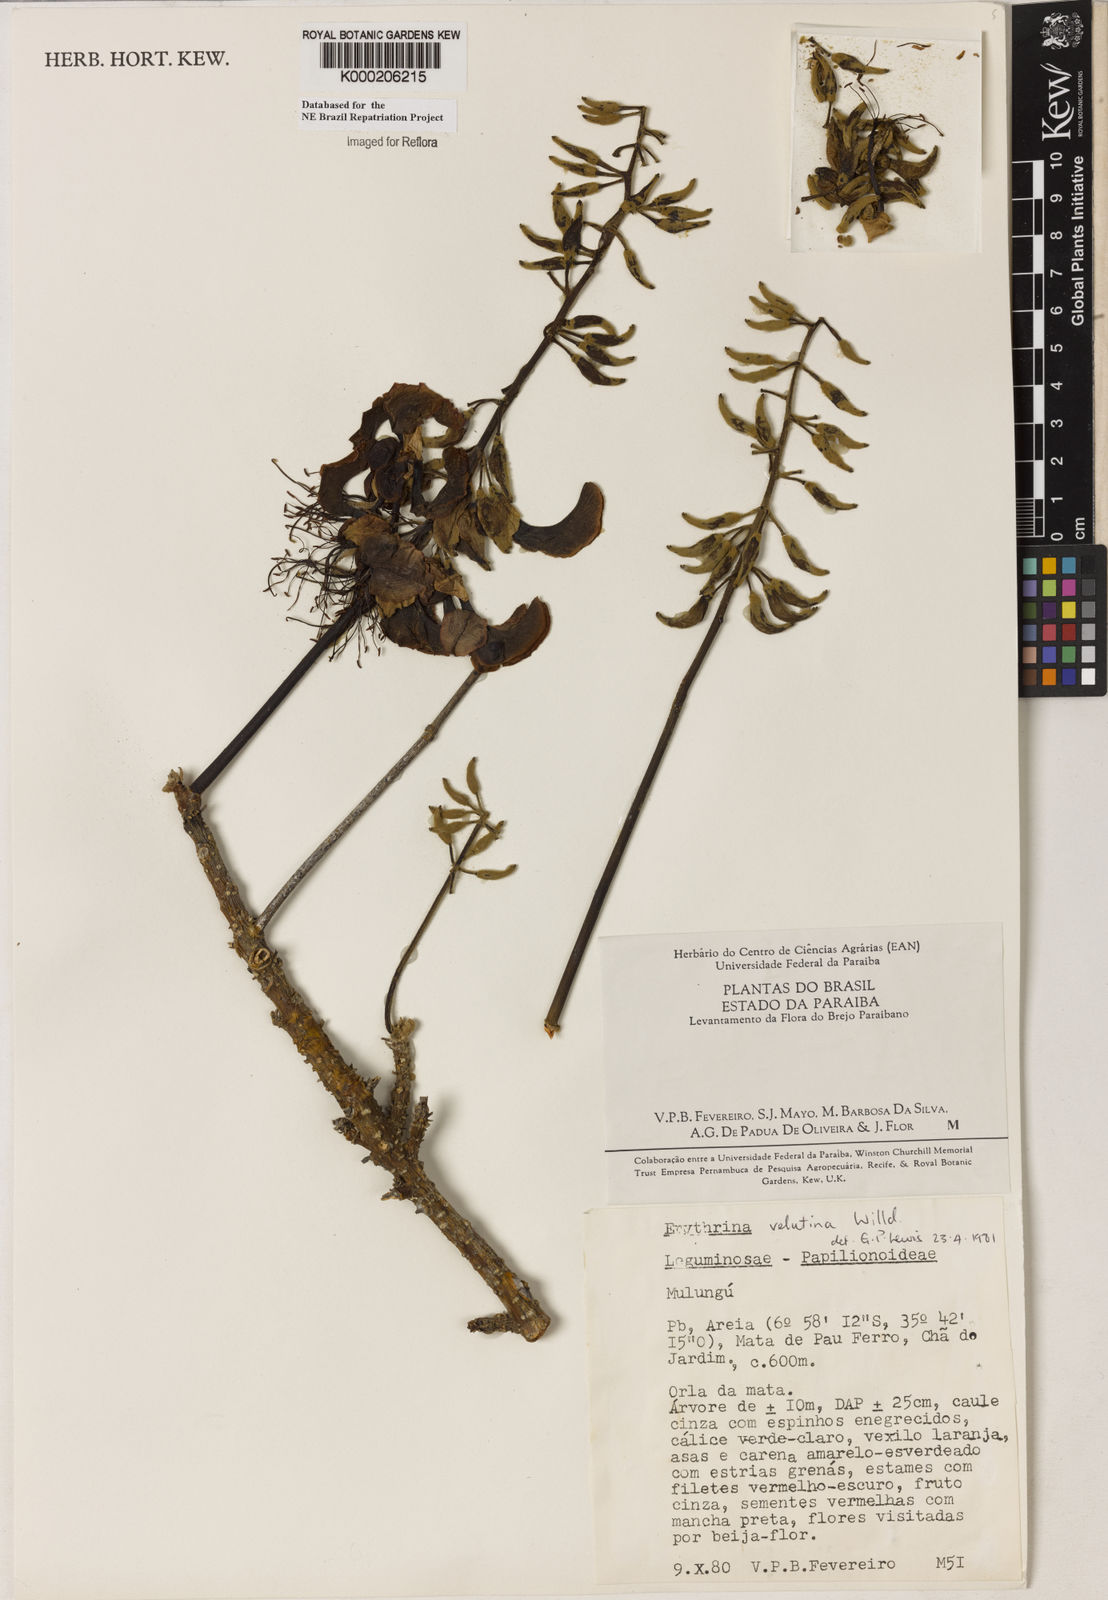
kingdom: Plantae
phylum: Tracheophyta
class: Magnoliopsida
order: Fabales
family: Fabaceae
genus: Erythrina
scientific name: Erythrina velutina
